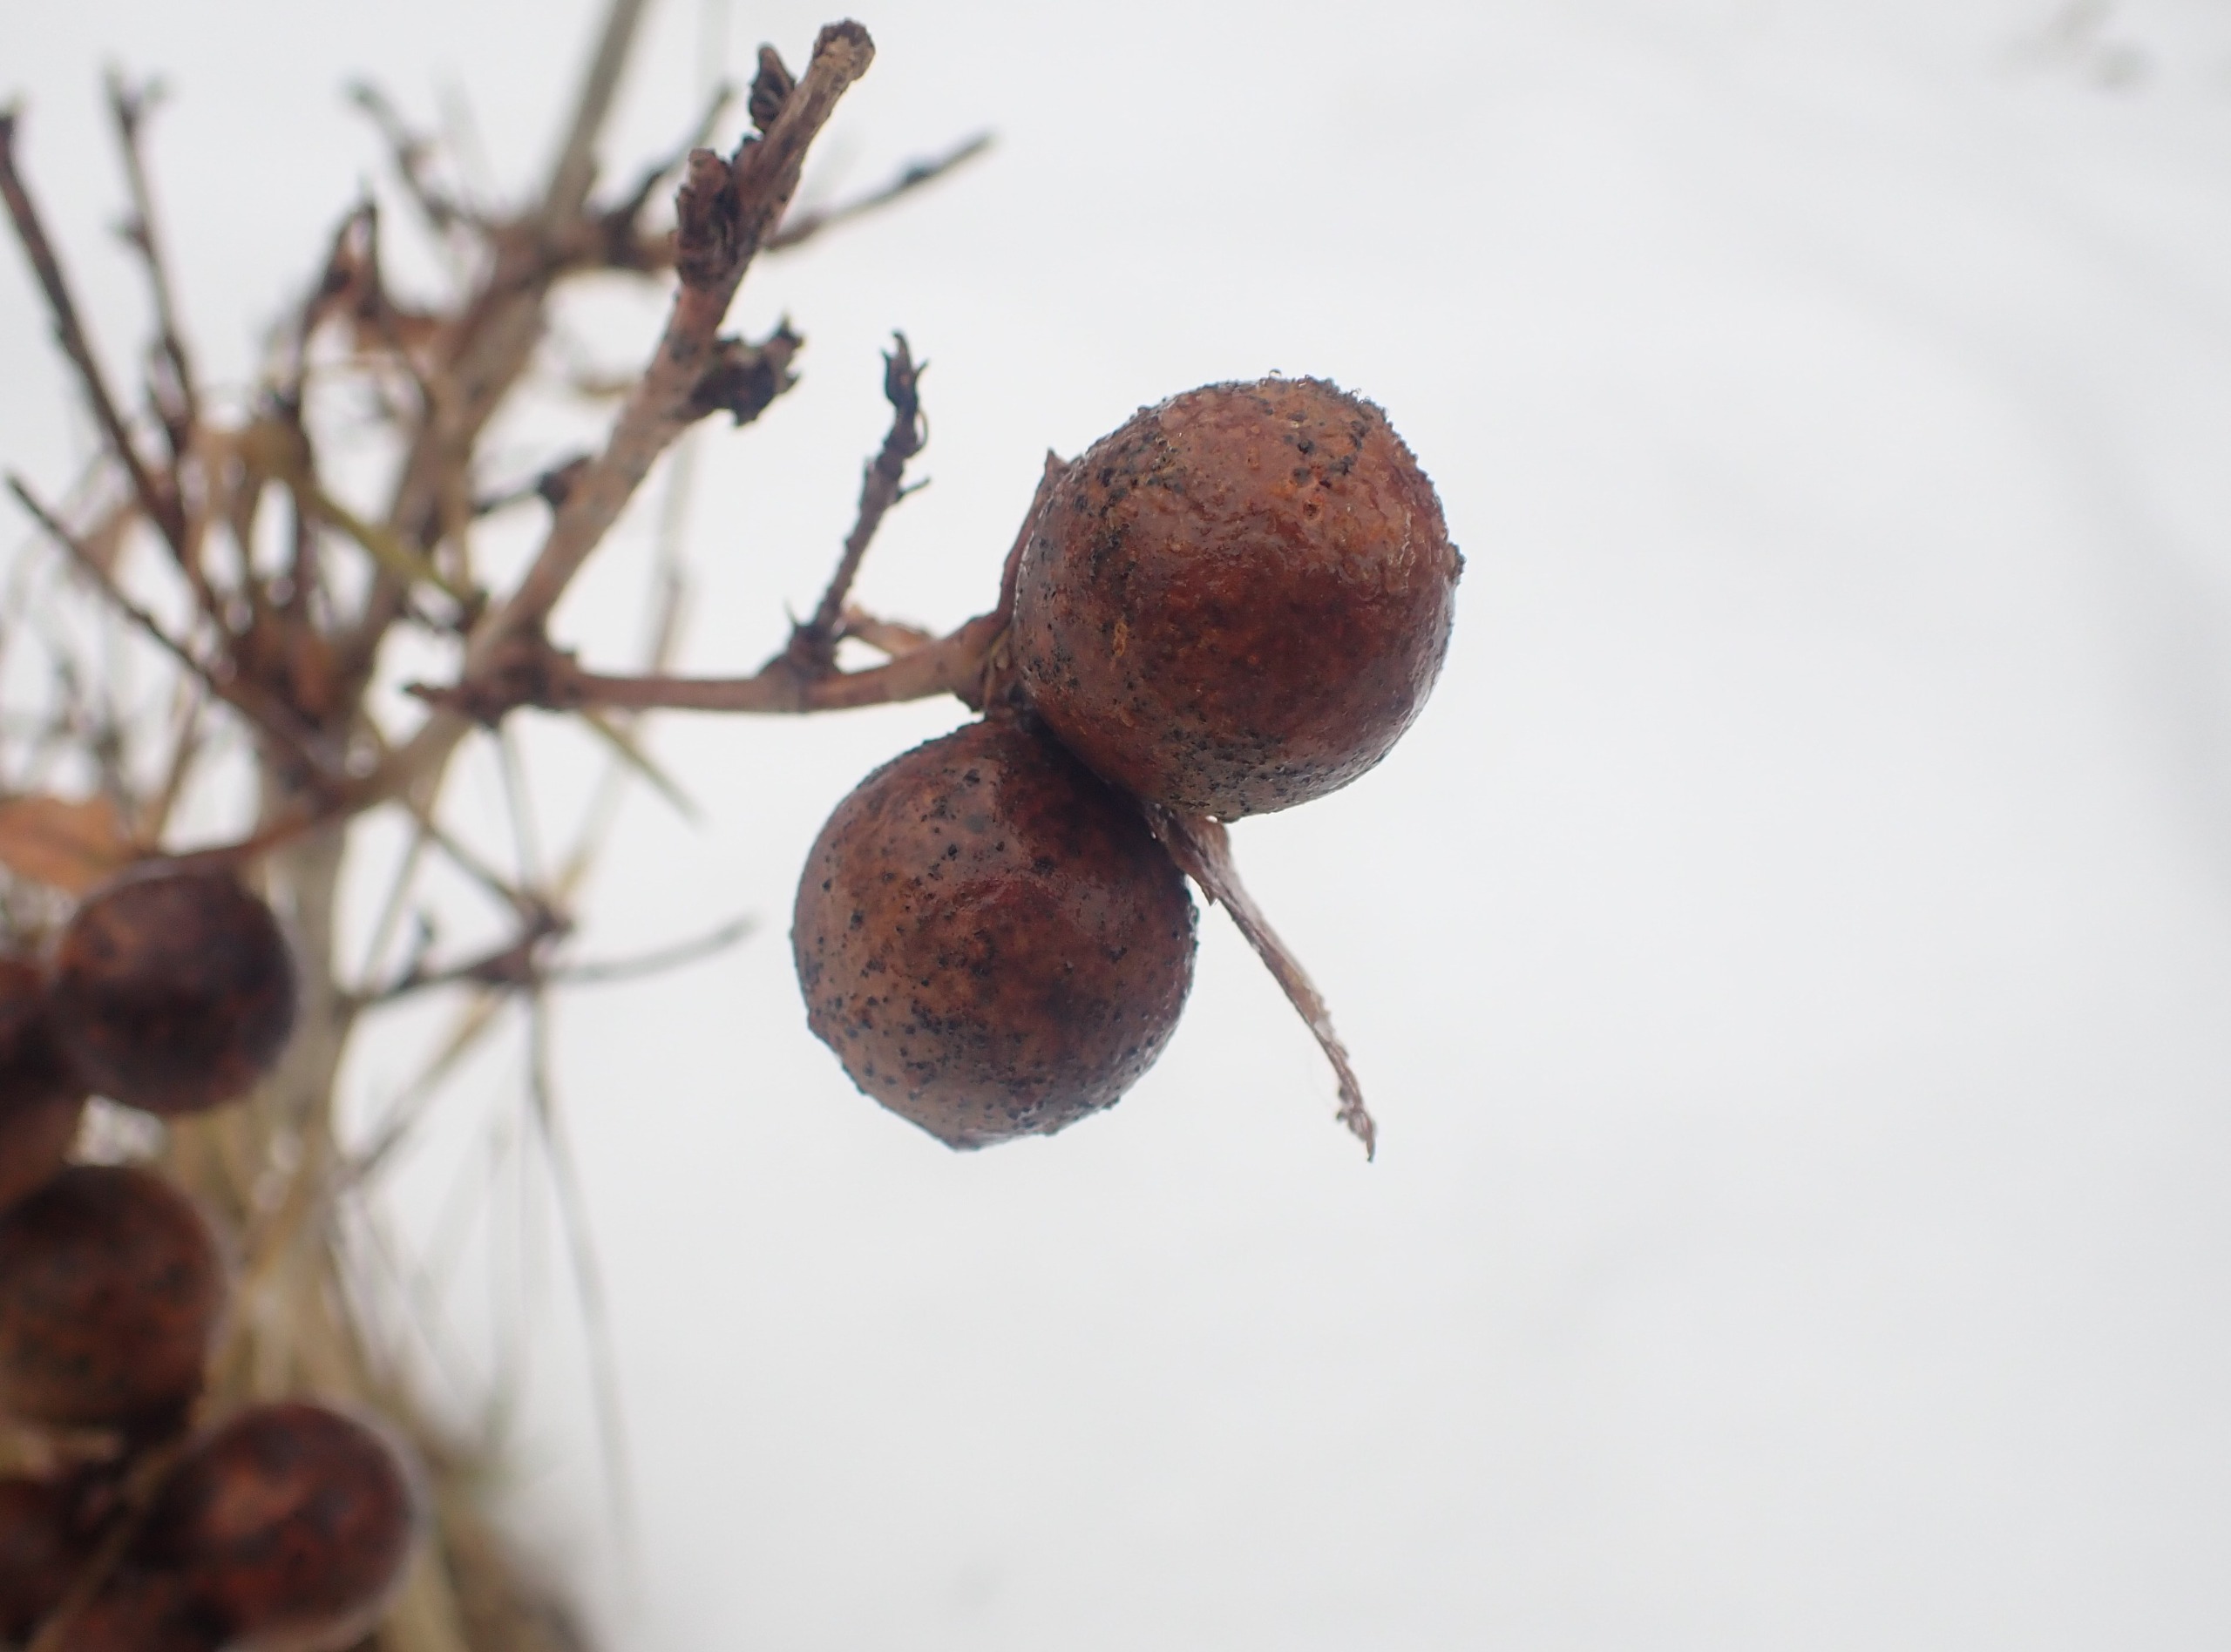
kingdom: Animalia
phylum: Arthropoda
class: Insecta
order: Hymenoptera
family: Cynipidae
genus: Andricus
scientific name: Andricus kollari
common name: Marmorkugle-galhveps
